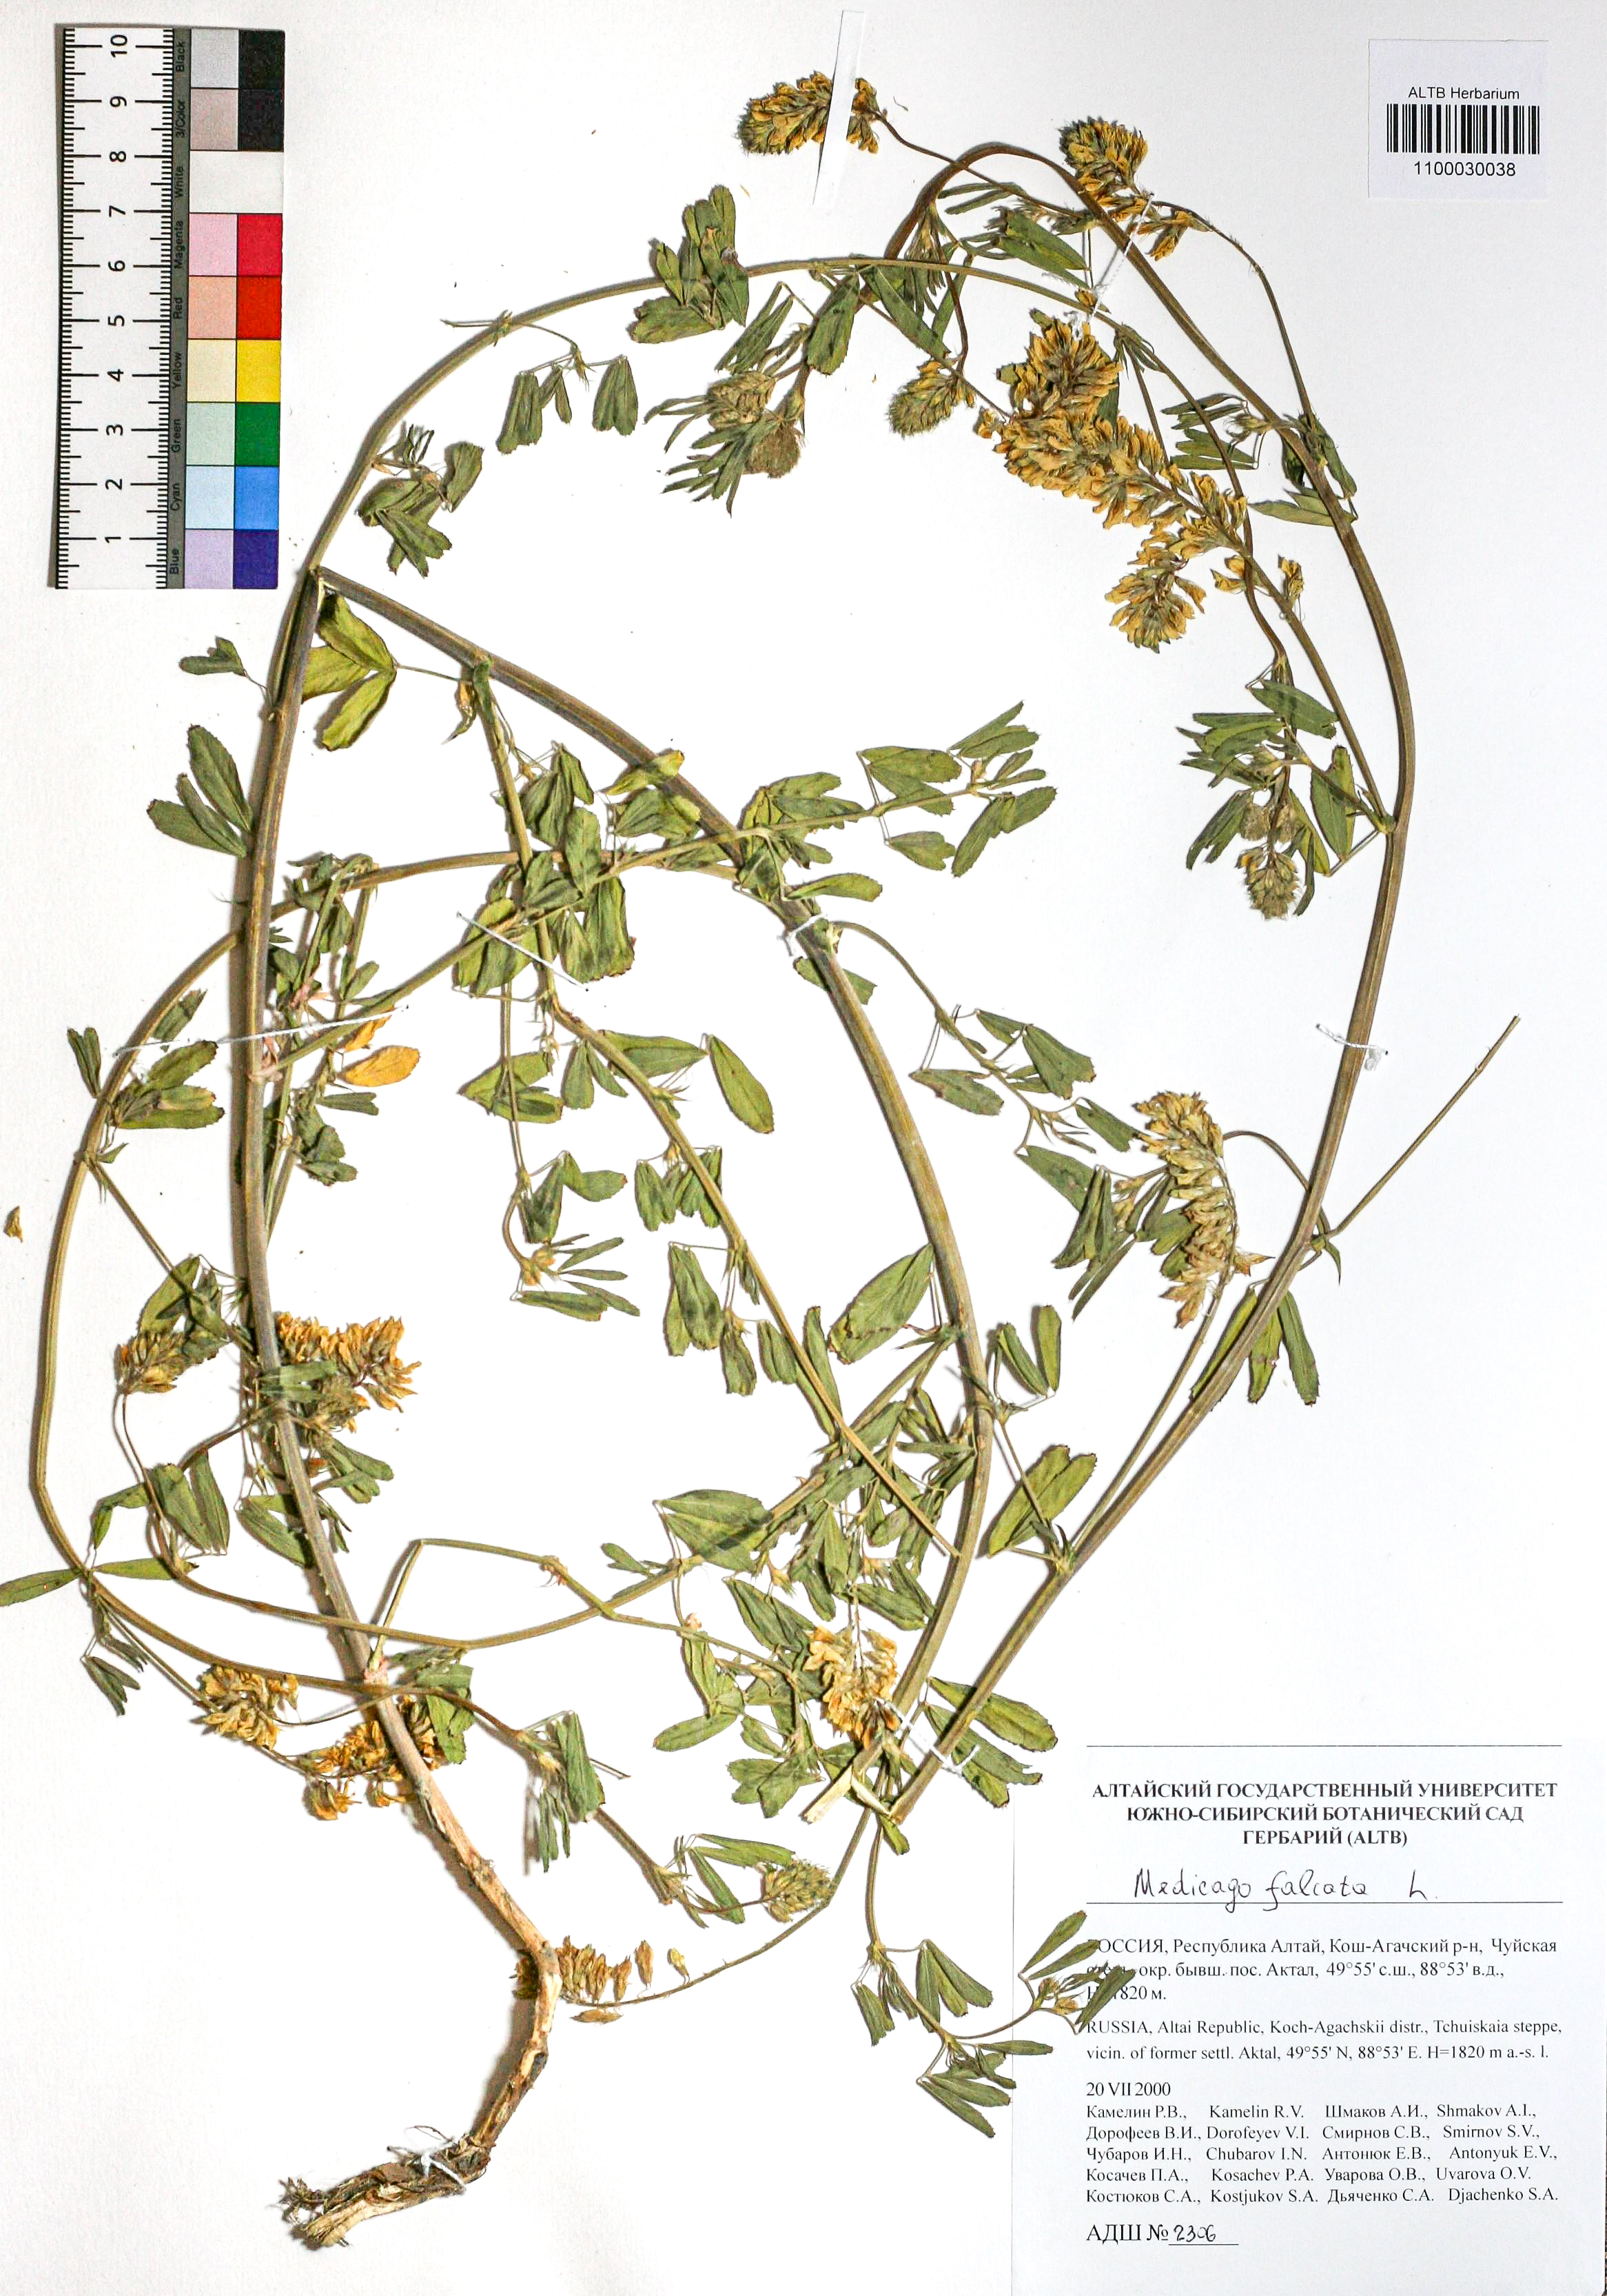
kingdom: Plantae
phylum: Tracheophyta
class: Magnoliopsida
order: Fabales
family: Fabaceae
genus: Medicago
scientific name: Medicago falcata
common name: Sickle medick
